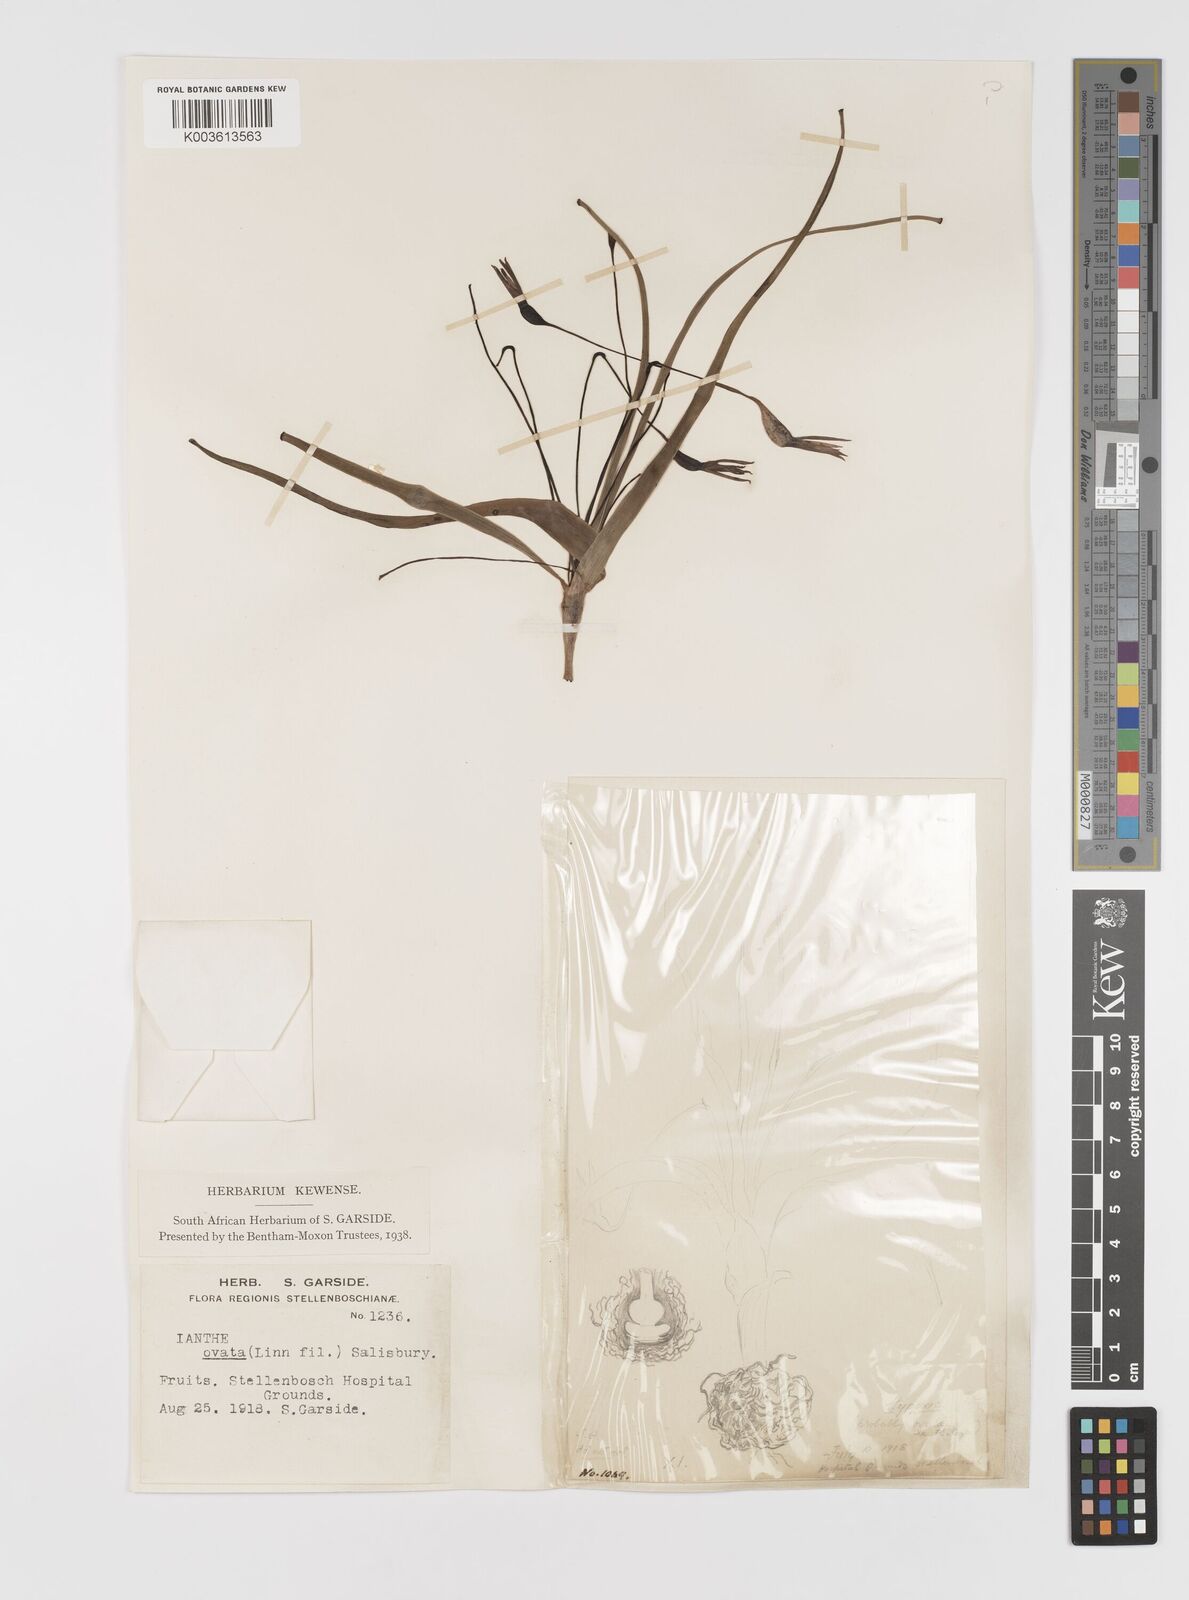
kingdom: Plantae
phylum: Tracheophyta
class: Liliopsida
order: Asparagales
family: Hypoxidaceae
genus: Pauridia
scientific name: Pauridia ovata
